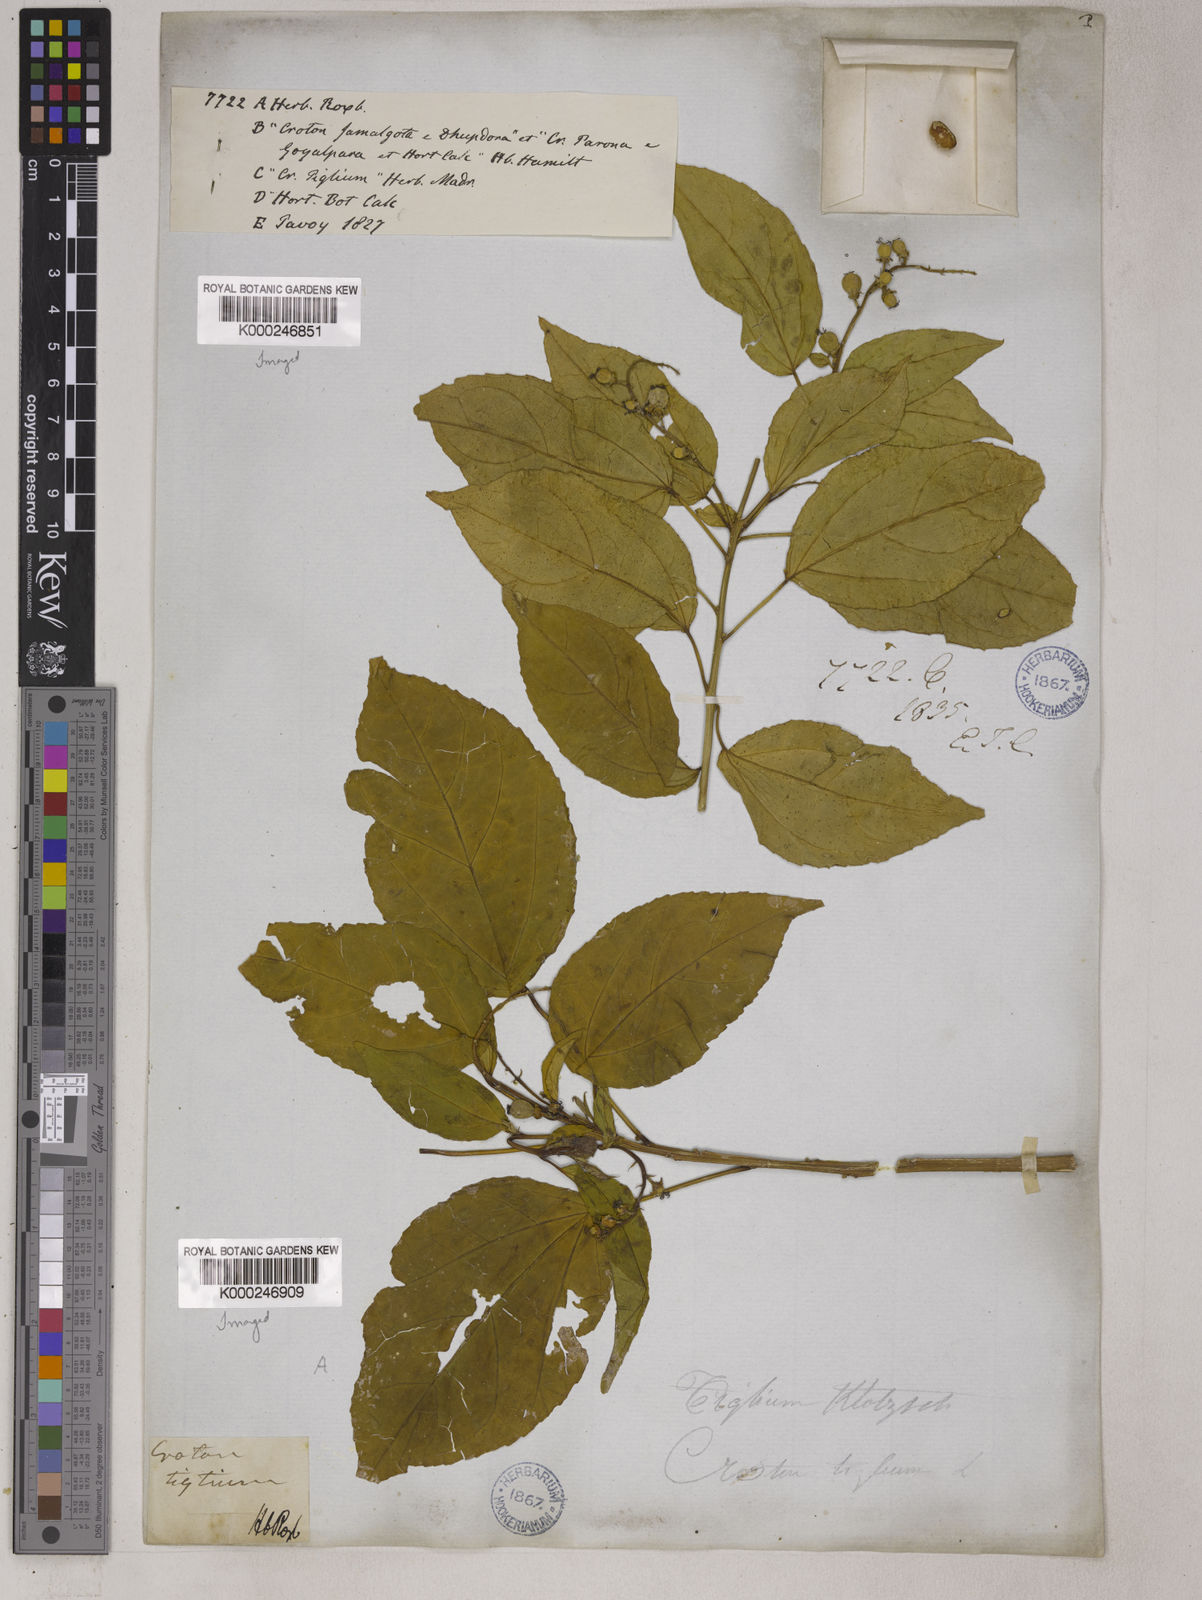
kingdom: Plantae
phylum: Tracheophyta
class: Magnoliopsida
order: Malpighiales
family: Euphorbiaceae
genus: Croton
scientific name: Croton tiglium
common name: Purging croton
